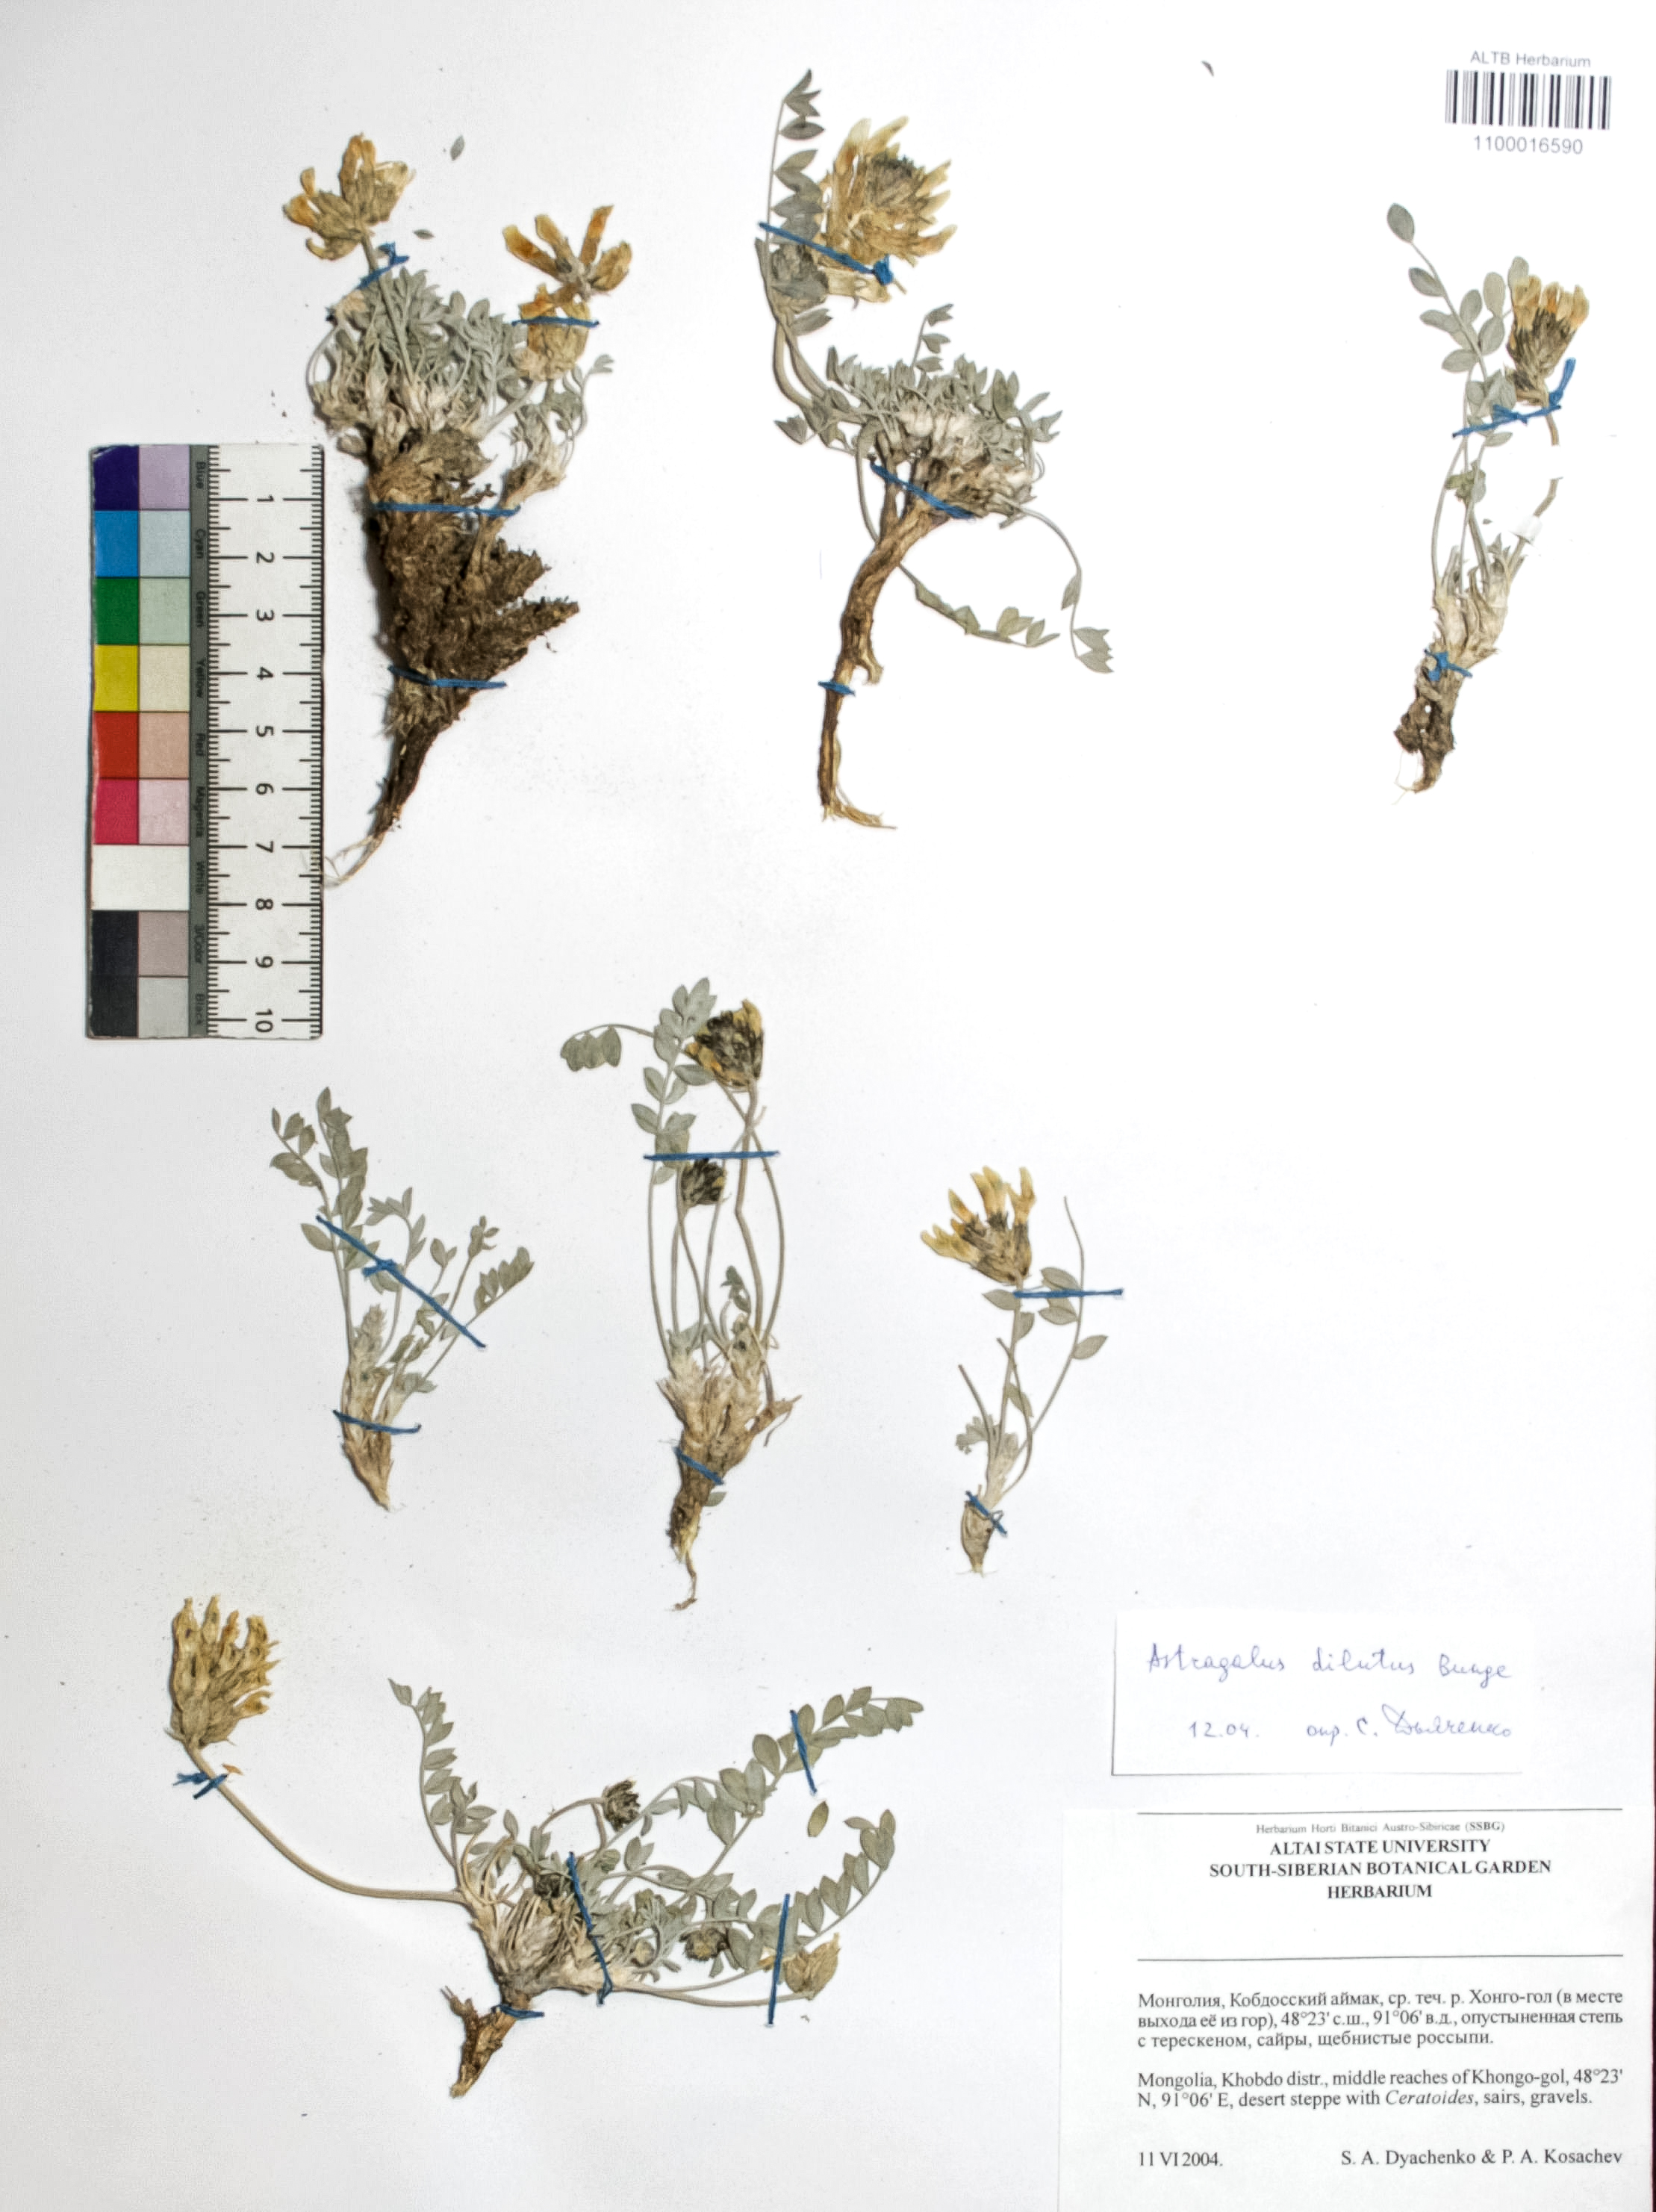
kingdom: Plantae
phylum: Tracheophyta
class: Magnoliopsida
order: Fabales
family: Fabaceae
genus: Astragalus
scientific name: Astragalus dilutus
